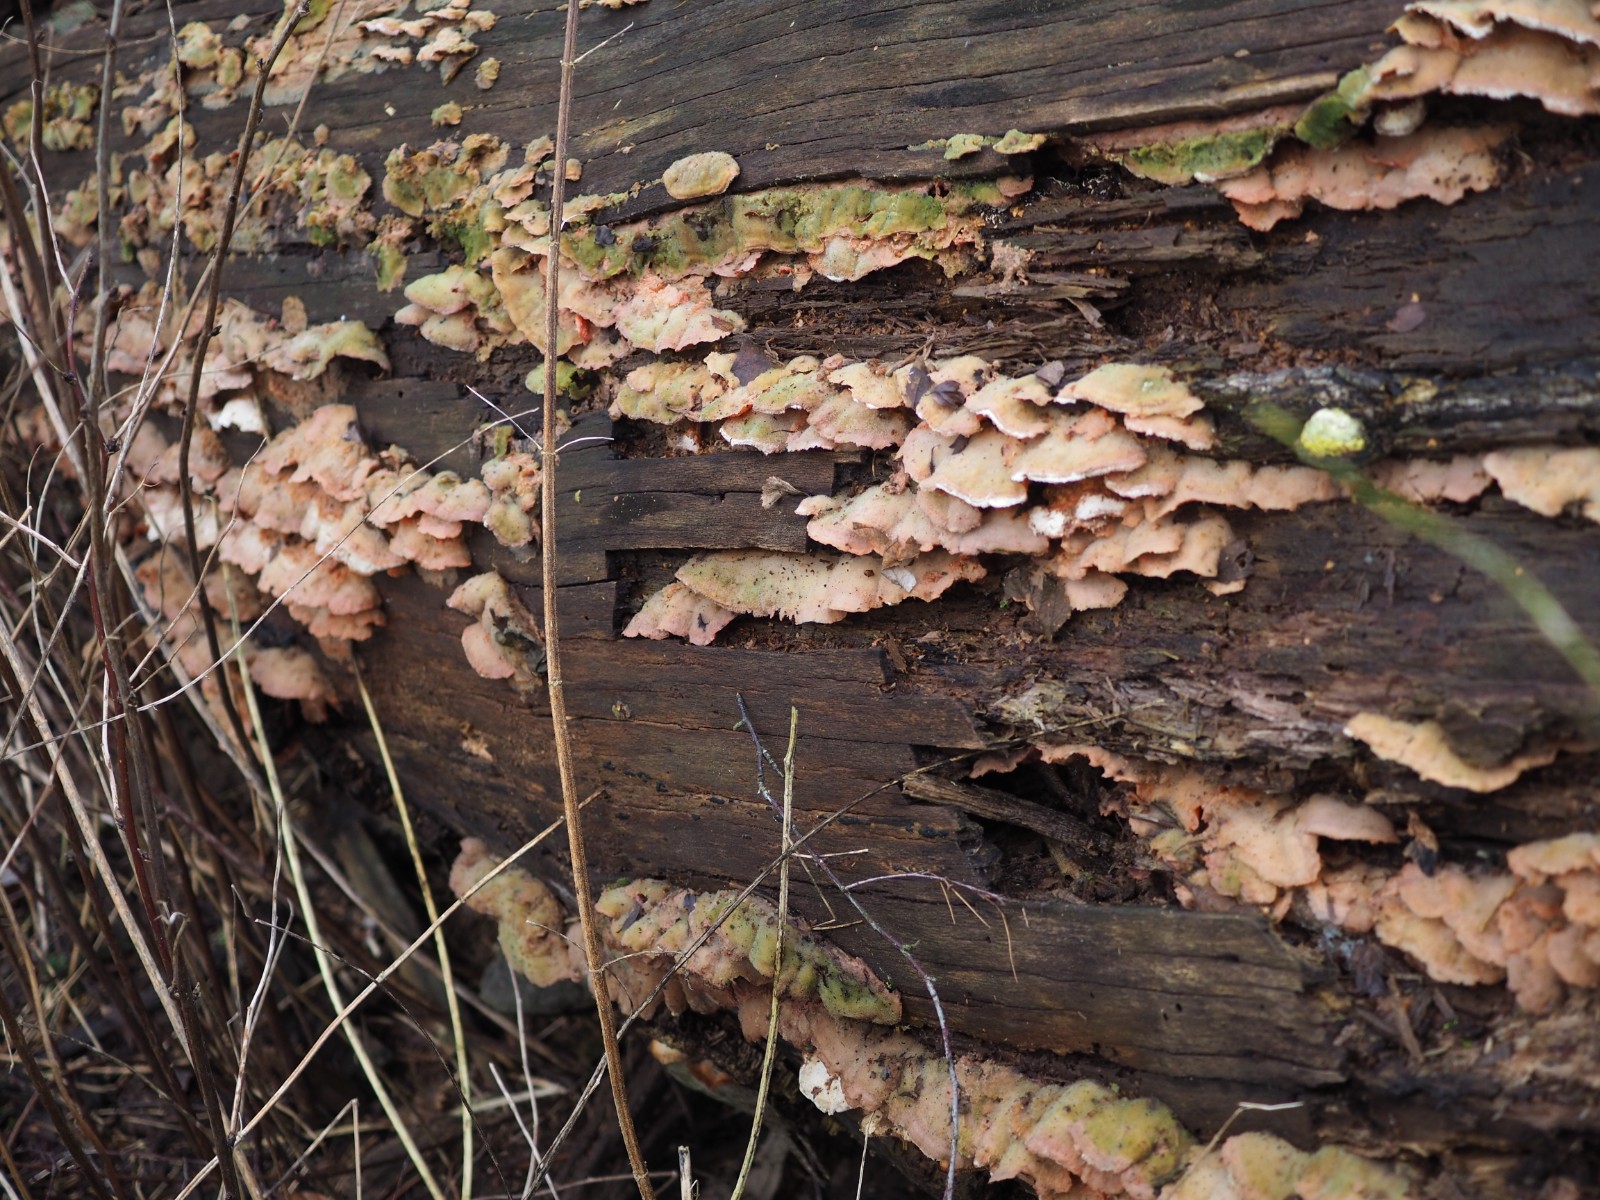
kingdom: Fungi
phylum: Basidiomycota
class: Agaricomycetes
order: Polyporales
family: Meruliaceae
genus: Phlebia
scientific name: Phlebia tremellosa
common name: bævrende åresvamp
